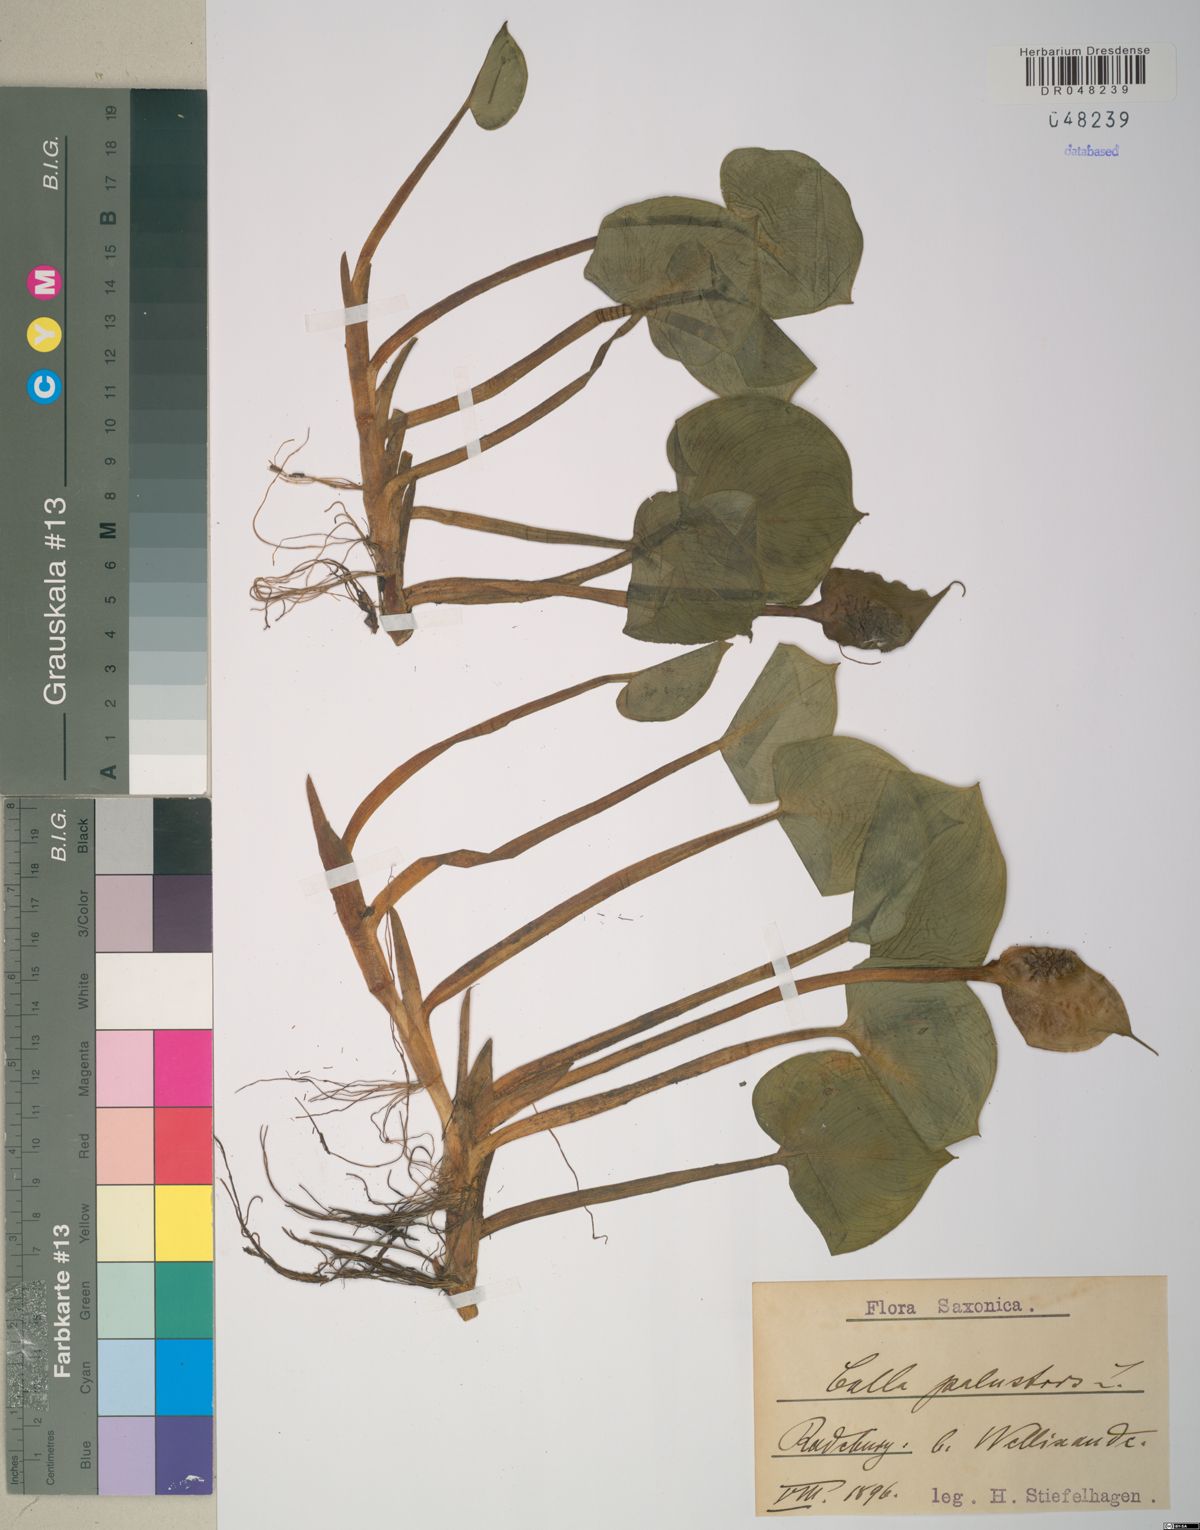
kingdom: Plantae
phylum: Tracheophyta
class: Liliopsida
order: Alismatales
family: Araceae
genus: Calla
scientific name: Calla palustris
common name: Bog arum
